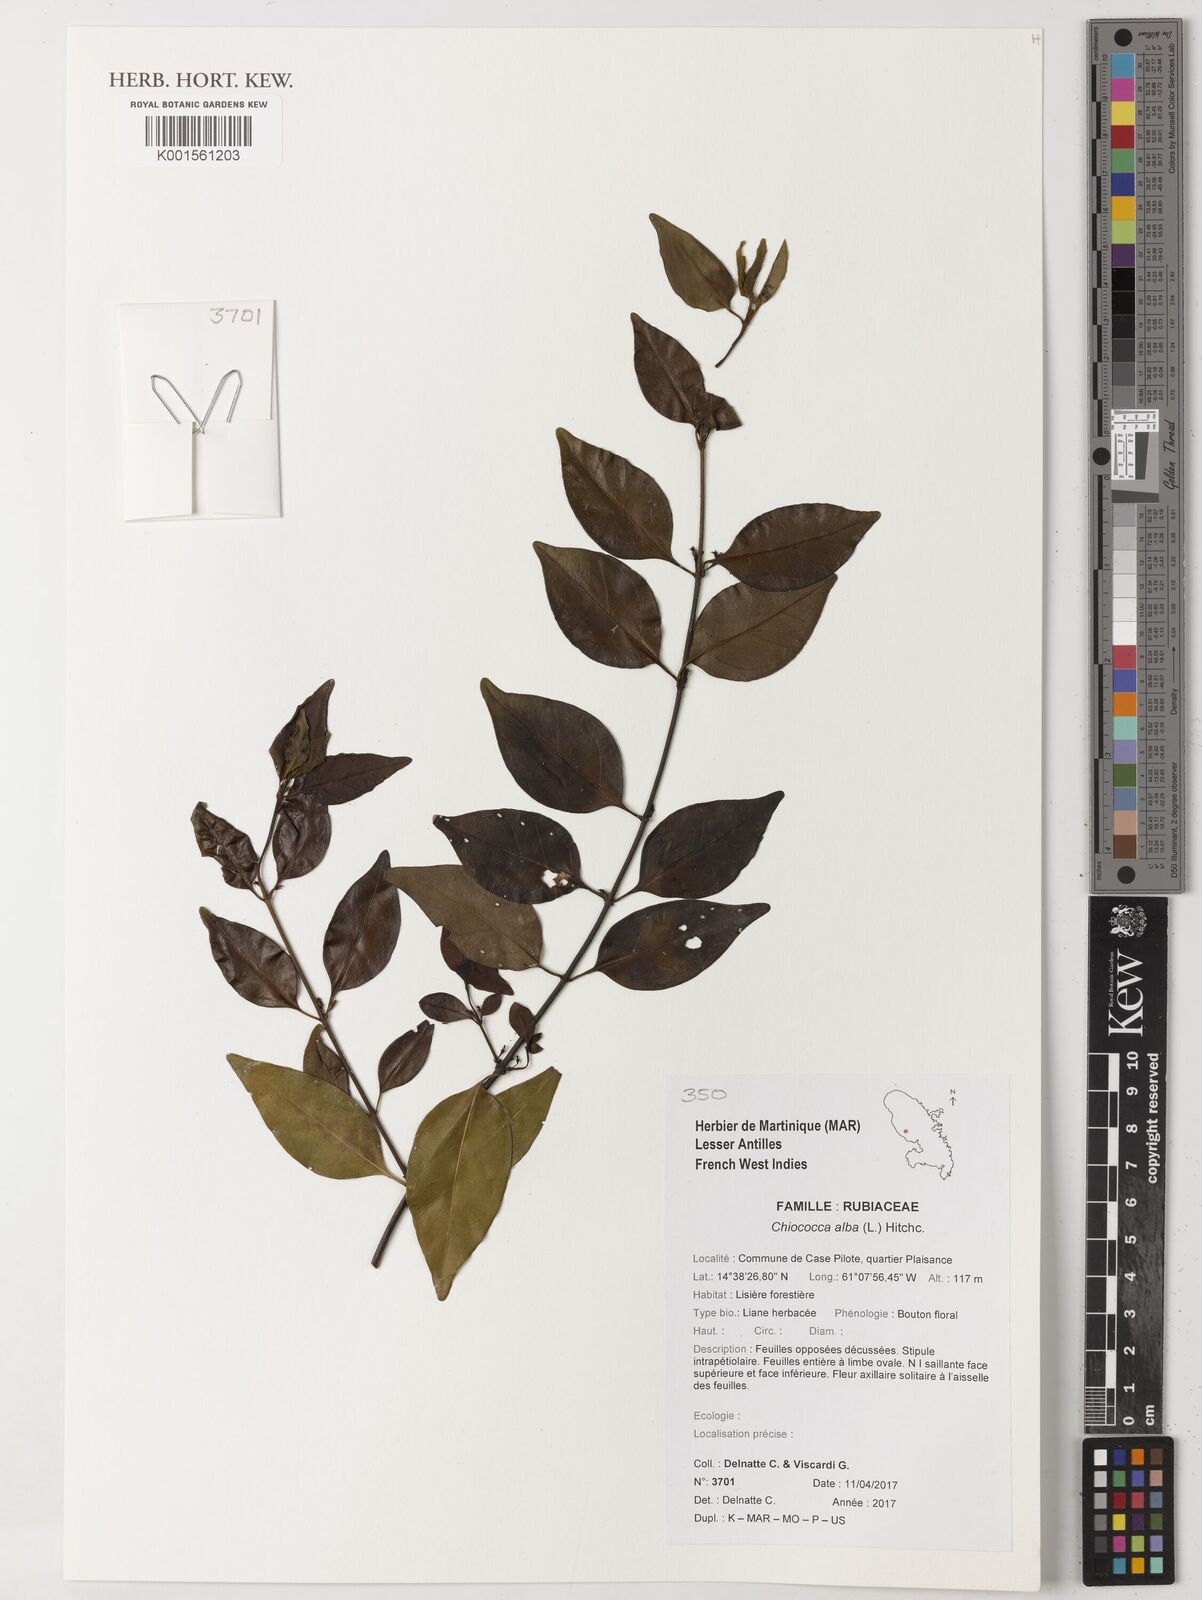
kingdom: Plantae
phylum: Tracheophyta
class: Magnoliopsida
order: Gentianales
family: Rubiaceae
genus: Chiococca
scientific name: Chiococca alba
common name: Snowberry
